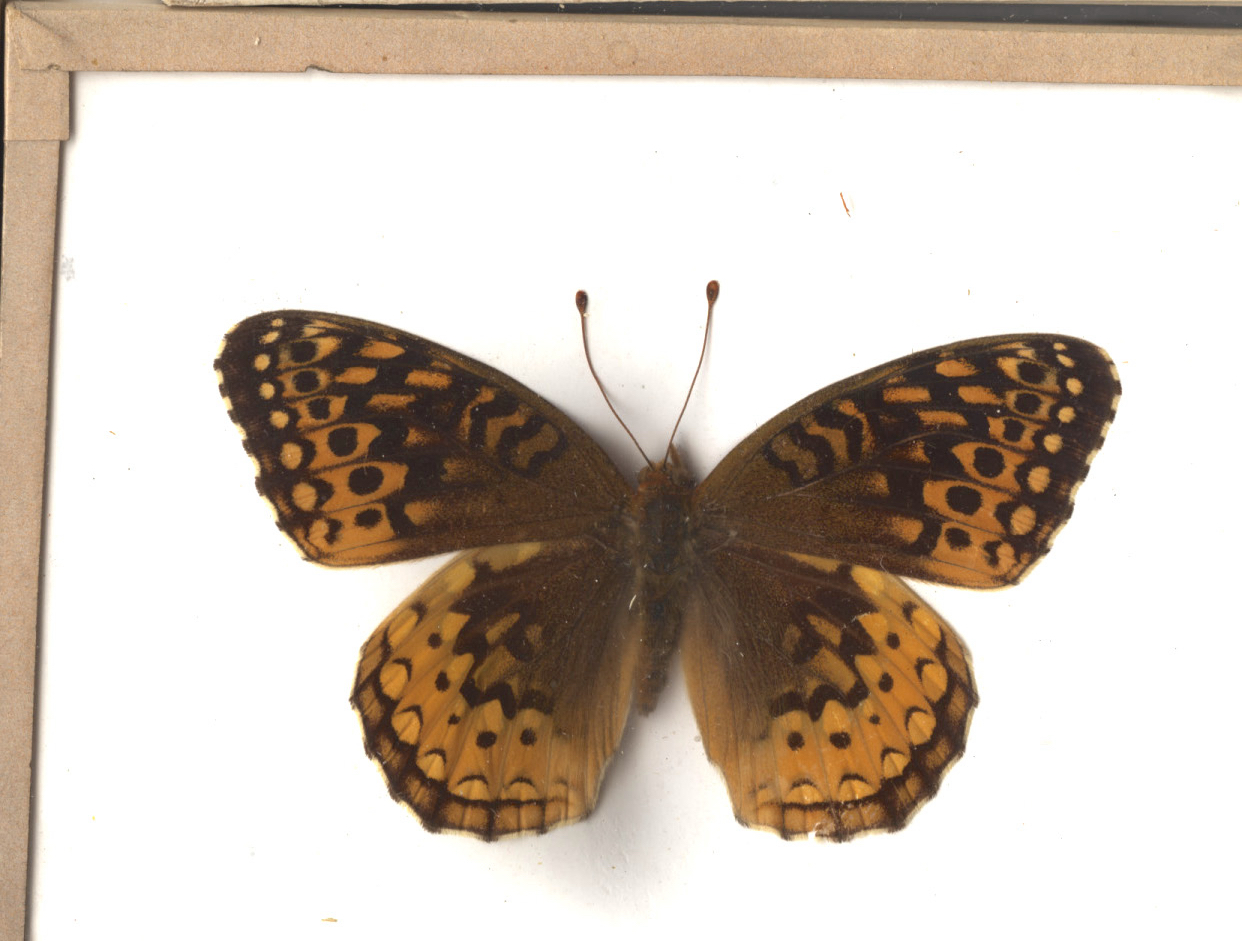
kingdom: Animalia
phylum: Arthropoda
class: Insecta
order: Lepidoptera
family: Nymphalidae
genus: Speyeria
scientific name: Speyeria cybele
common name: Great Spangled Fritillary
